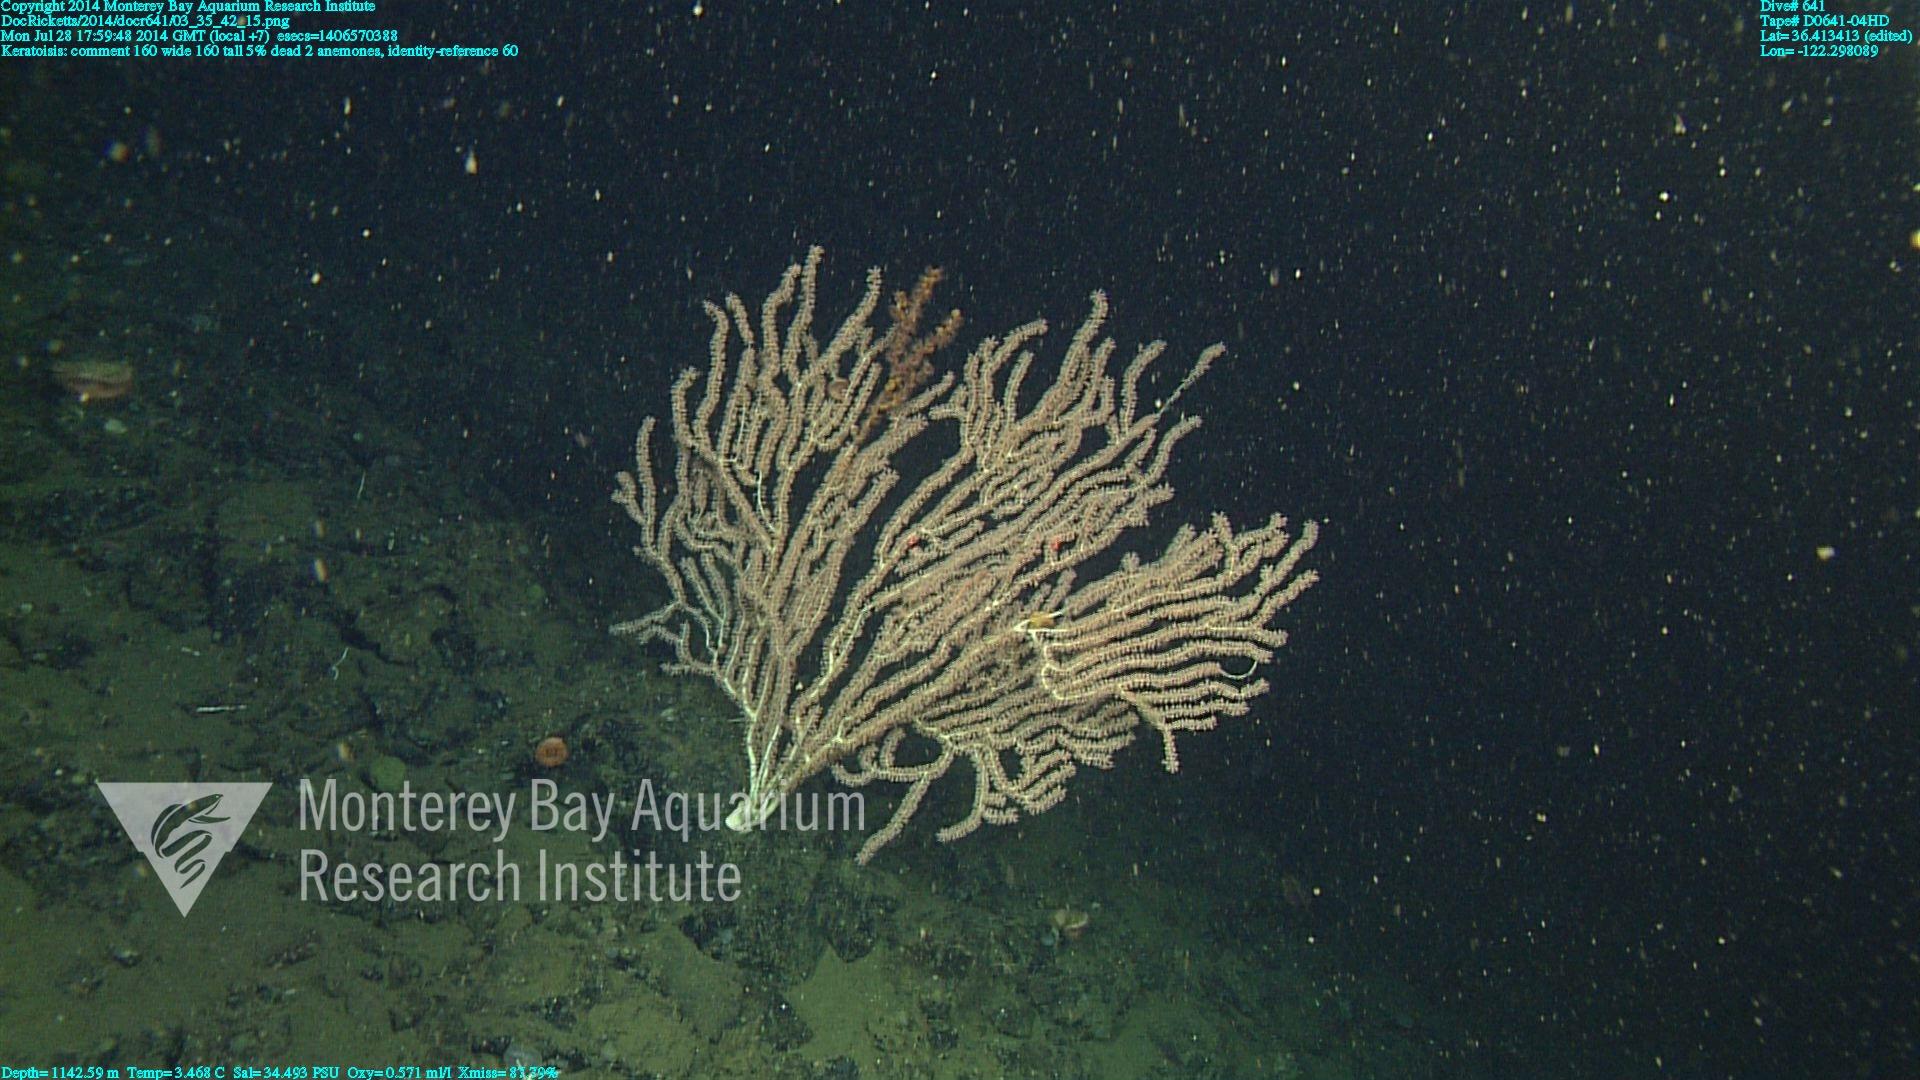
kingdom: Animalia
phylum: Cnidaria
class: Anthozoa
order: Scleralcyonacea
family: Keratoisididae
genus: Keratoisis
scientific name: Keratoisis
